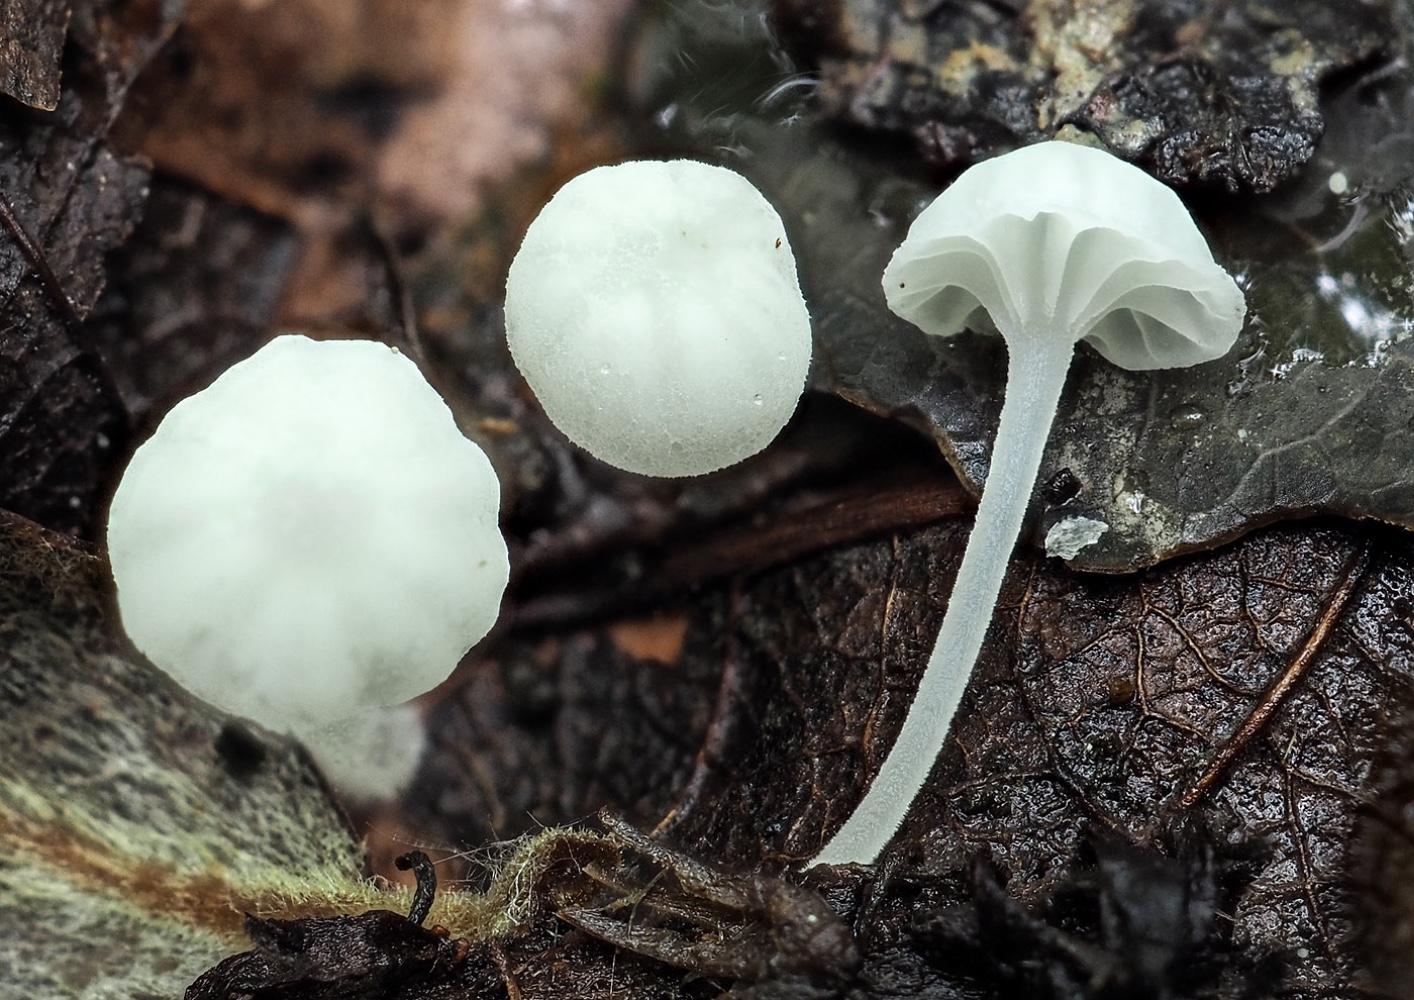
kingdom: Fungi
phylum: Basidiomycota
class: Agaricomycetes
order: Agaricales
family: Mycenaceae
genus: Hemimycena
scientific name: Hemimycena
